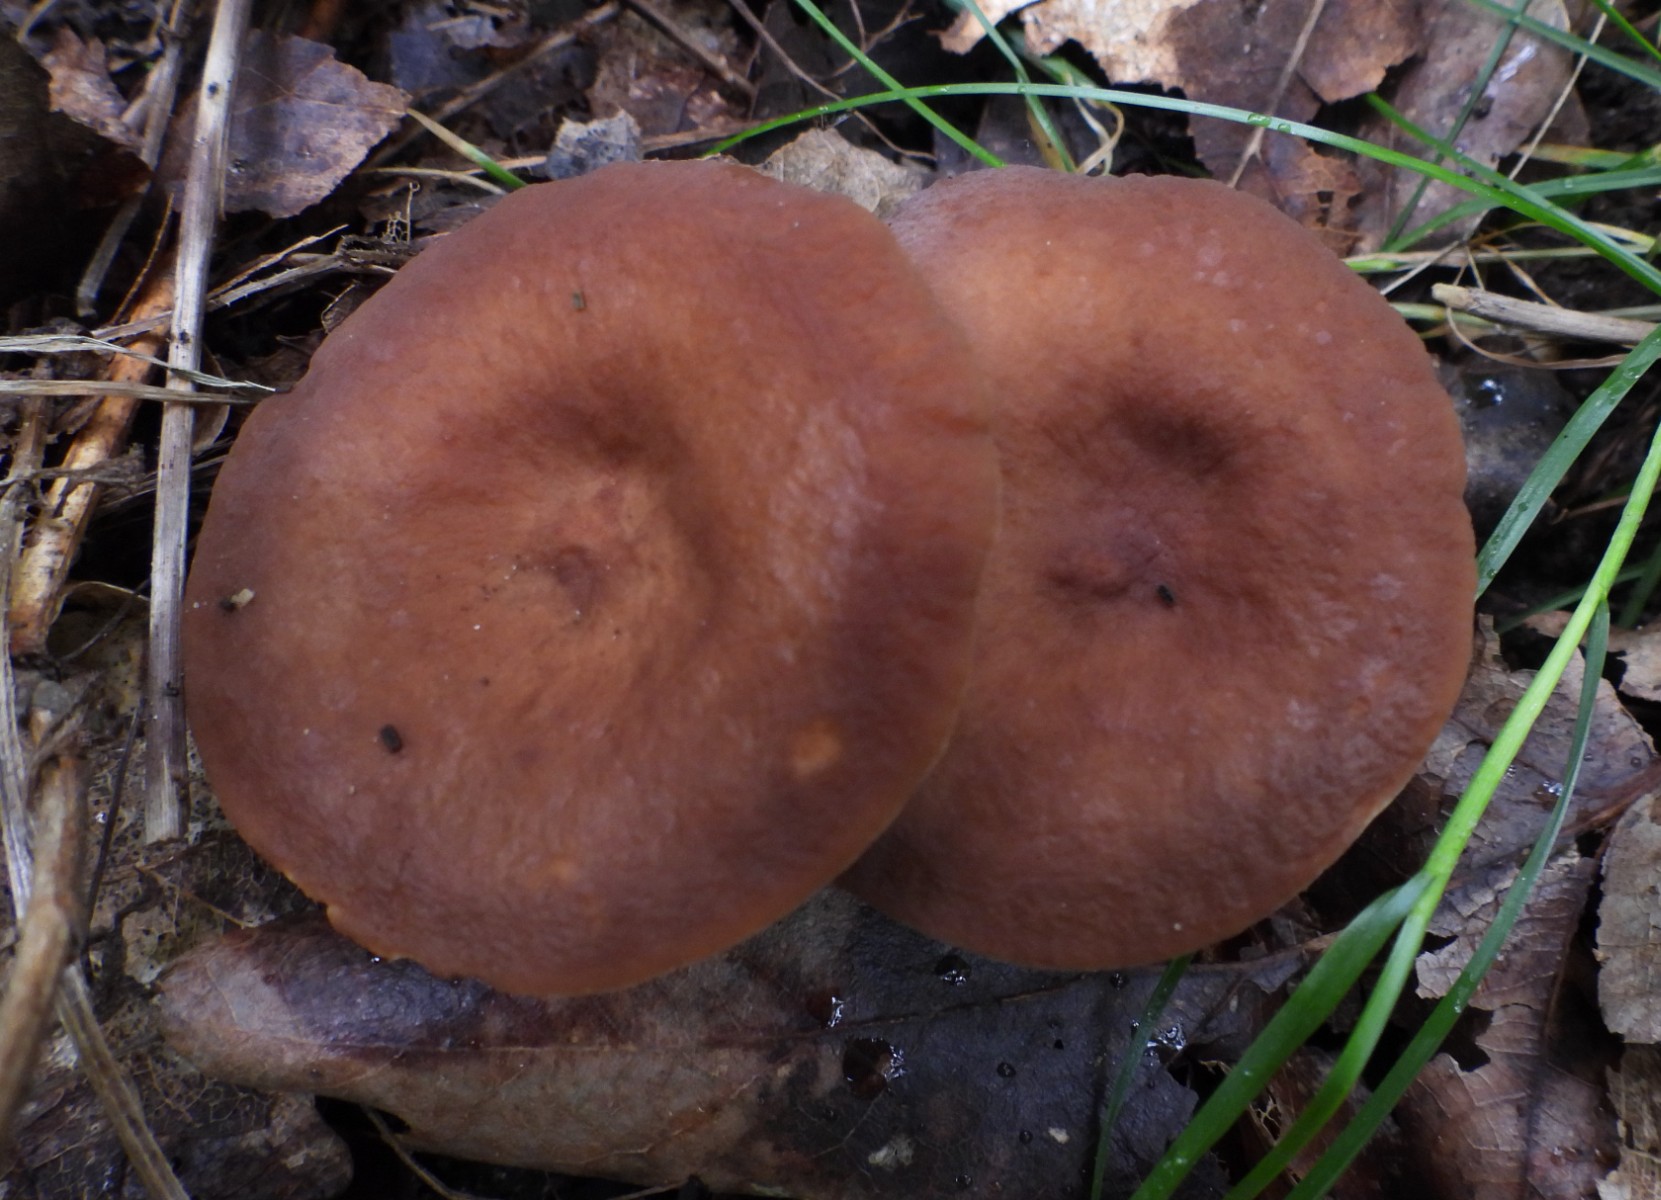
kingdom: Fungi
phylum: Basidiomycota
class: Agaricomycetes
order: Russulales
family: Russulaceae
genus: Lactarius
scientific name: Lactarius serifluus
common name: tæge-mælkehat
